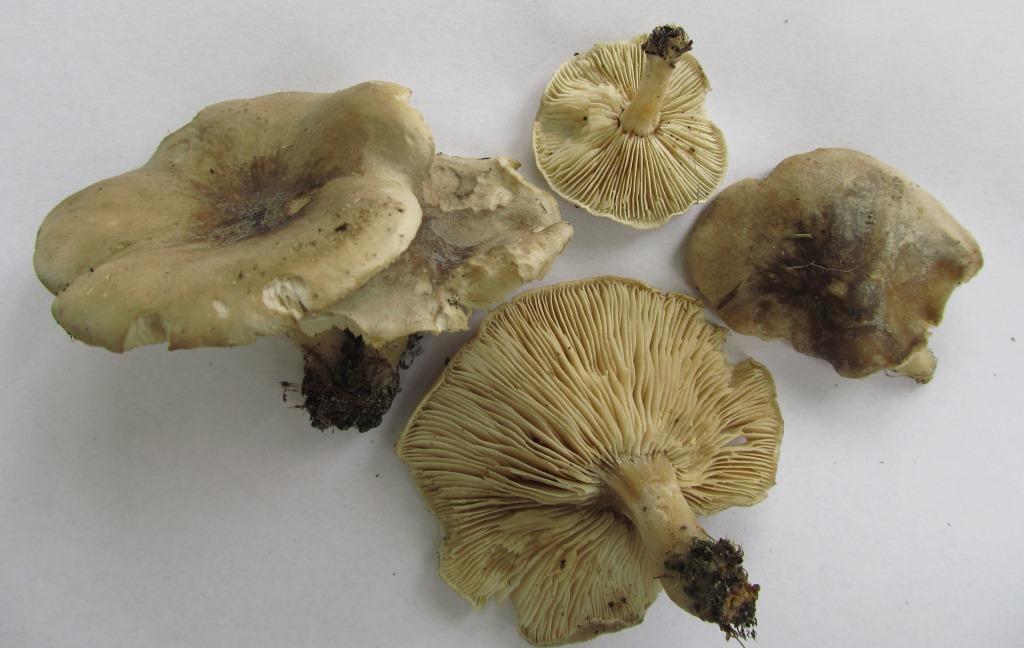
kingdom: Fungi
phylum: Basidiomycota
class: Agaricomycetes
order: Agaricales
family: Tricholomataceae
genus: Melanoleuca
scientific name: Melanoleuca exscissa
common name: gusten munkehat
